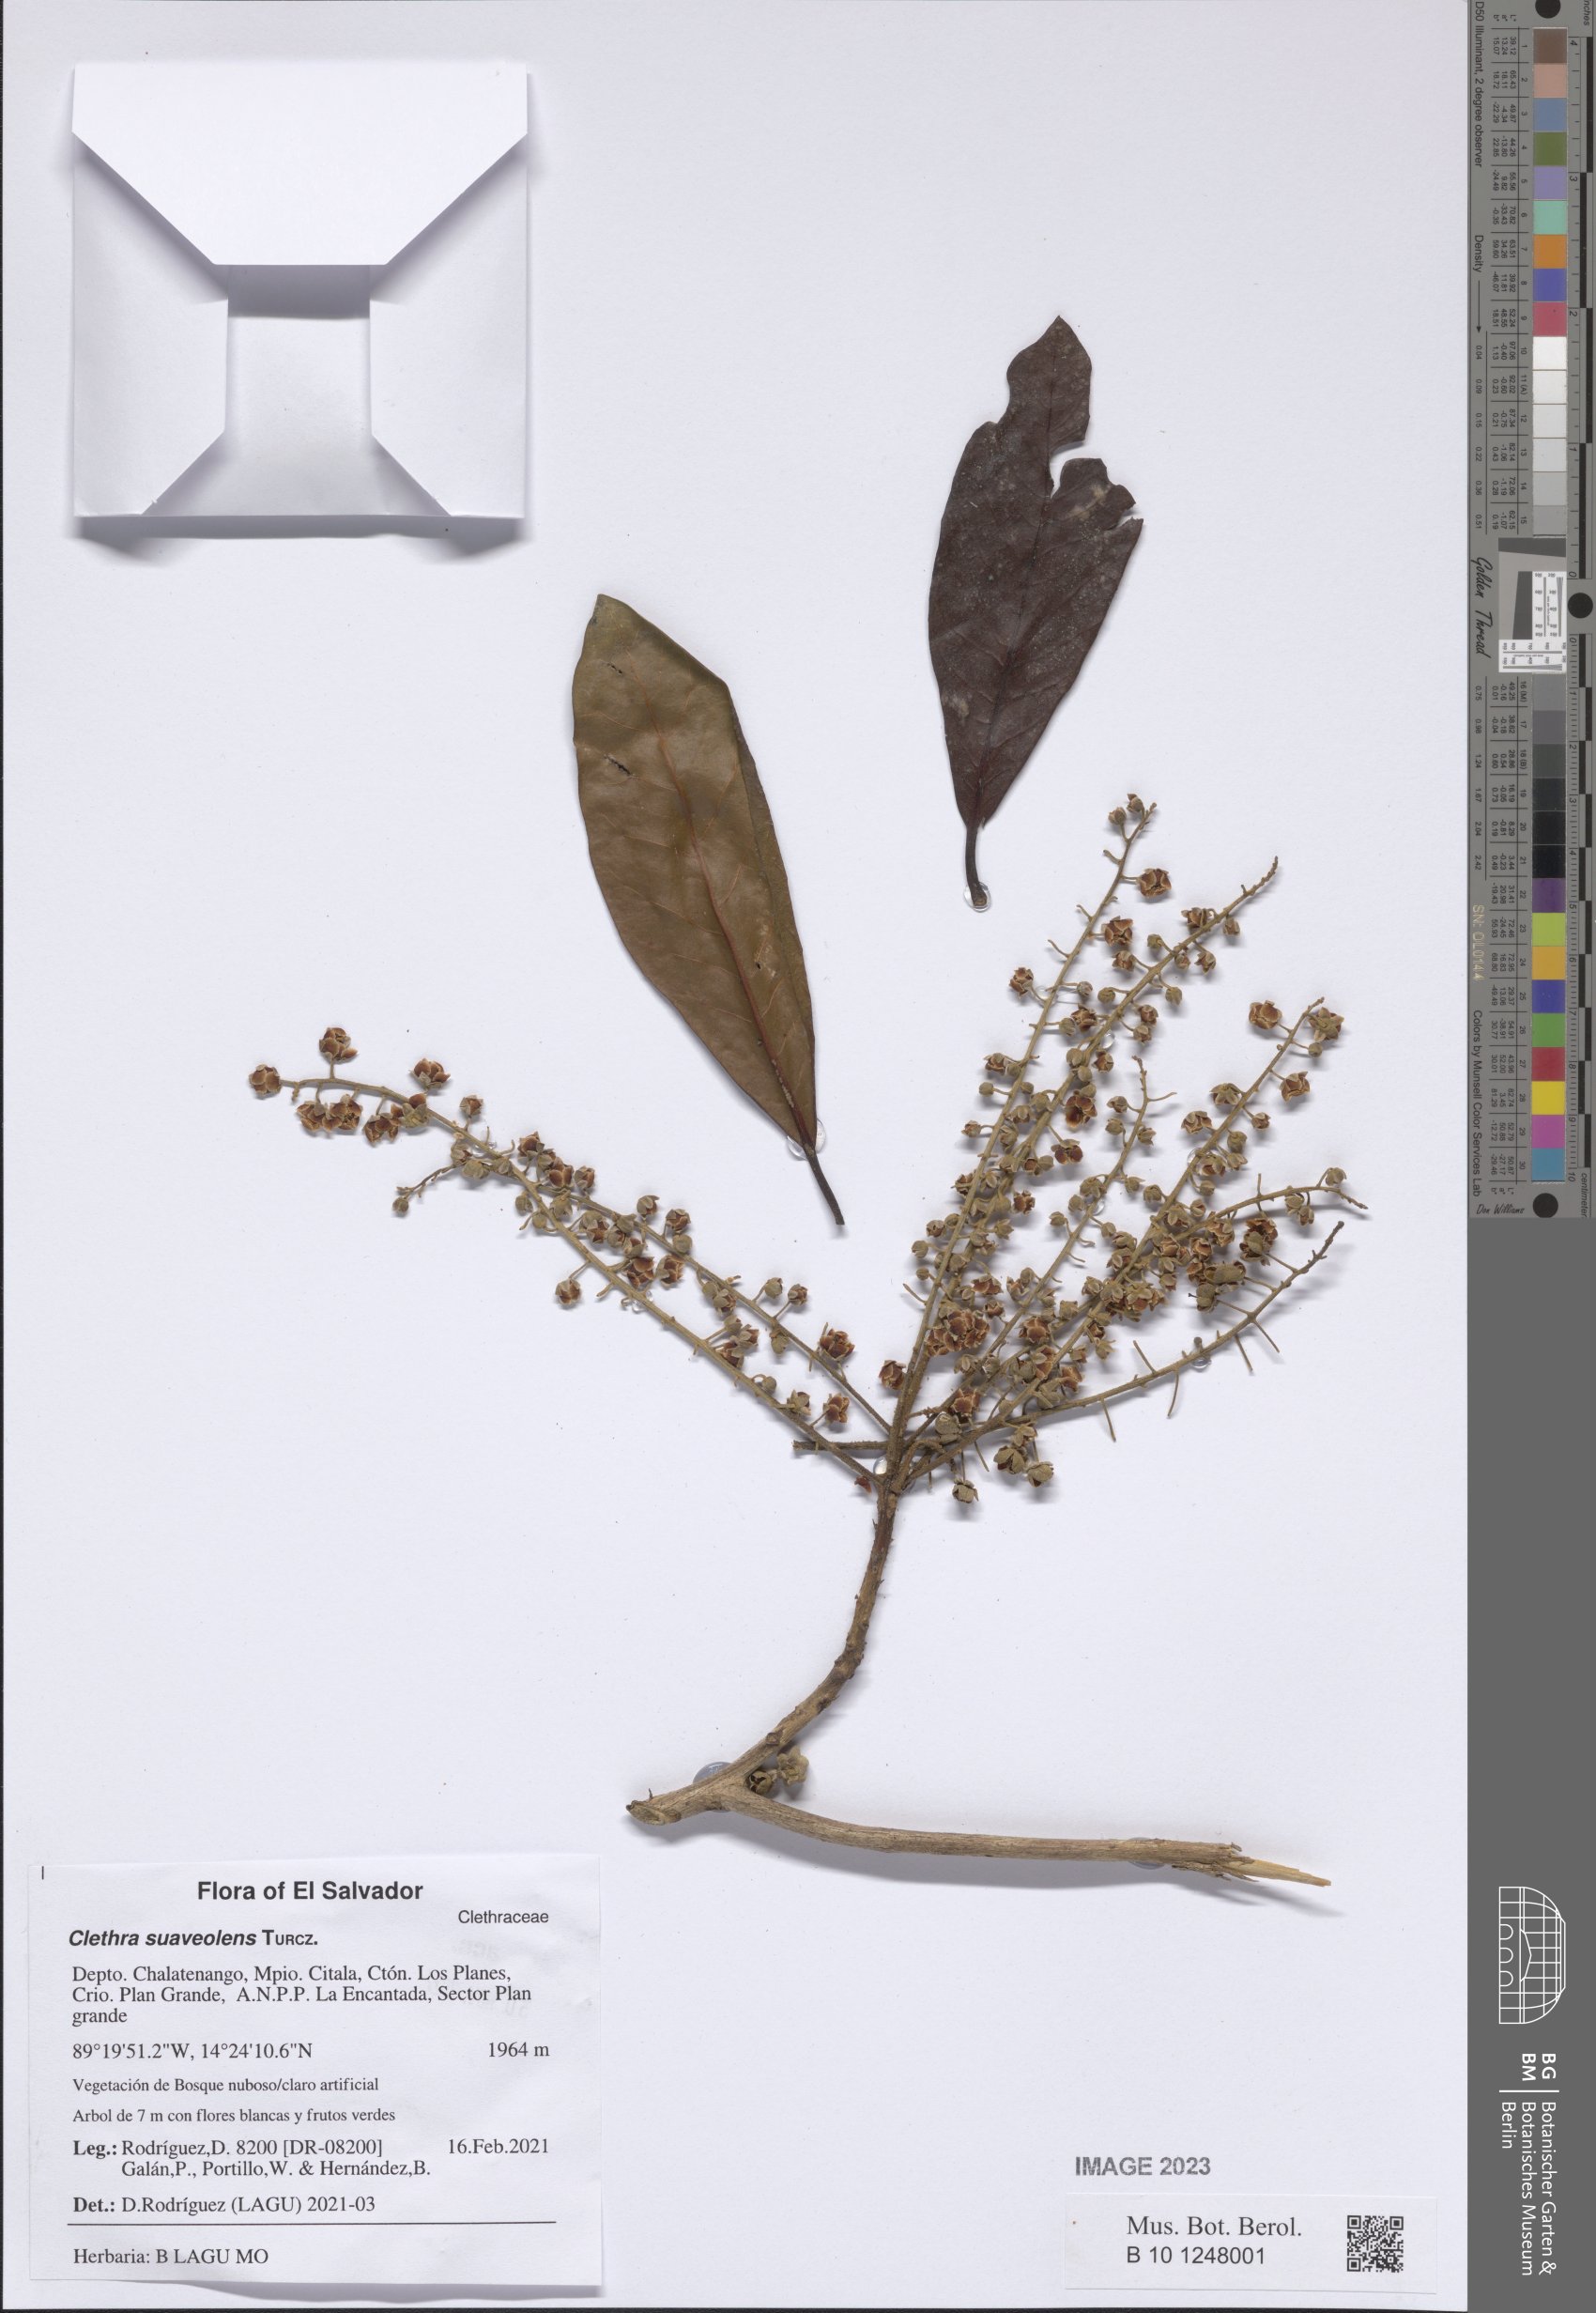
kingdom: Plantae
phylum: Tracheophyta
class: Magnoliopsida
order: Ericales
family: Clethraceae
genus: Clethra
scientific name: Clethra suaveolens
